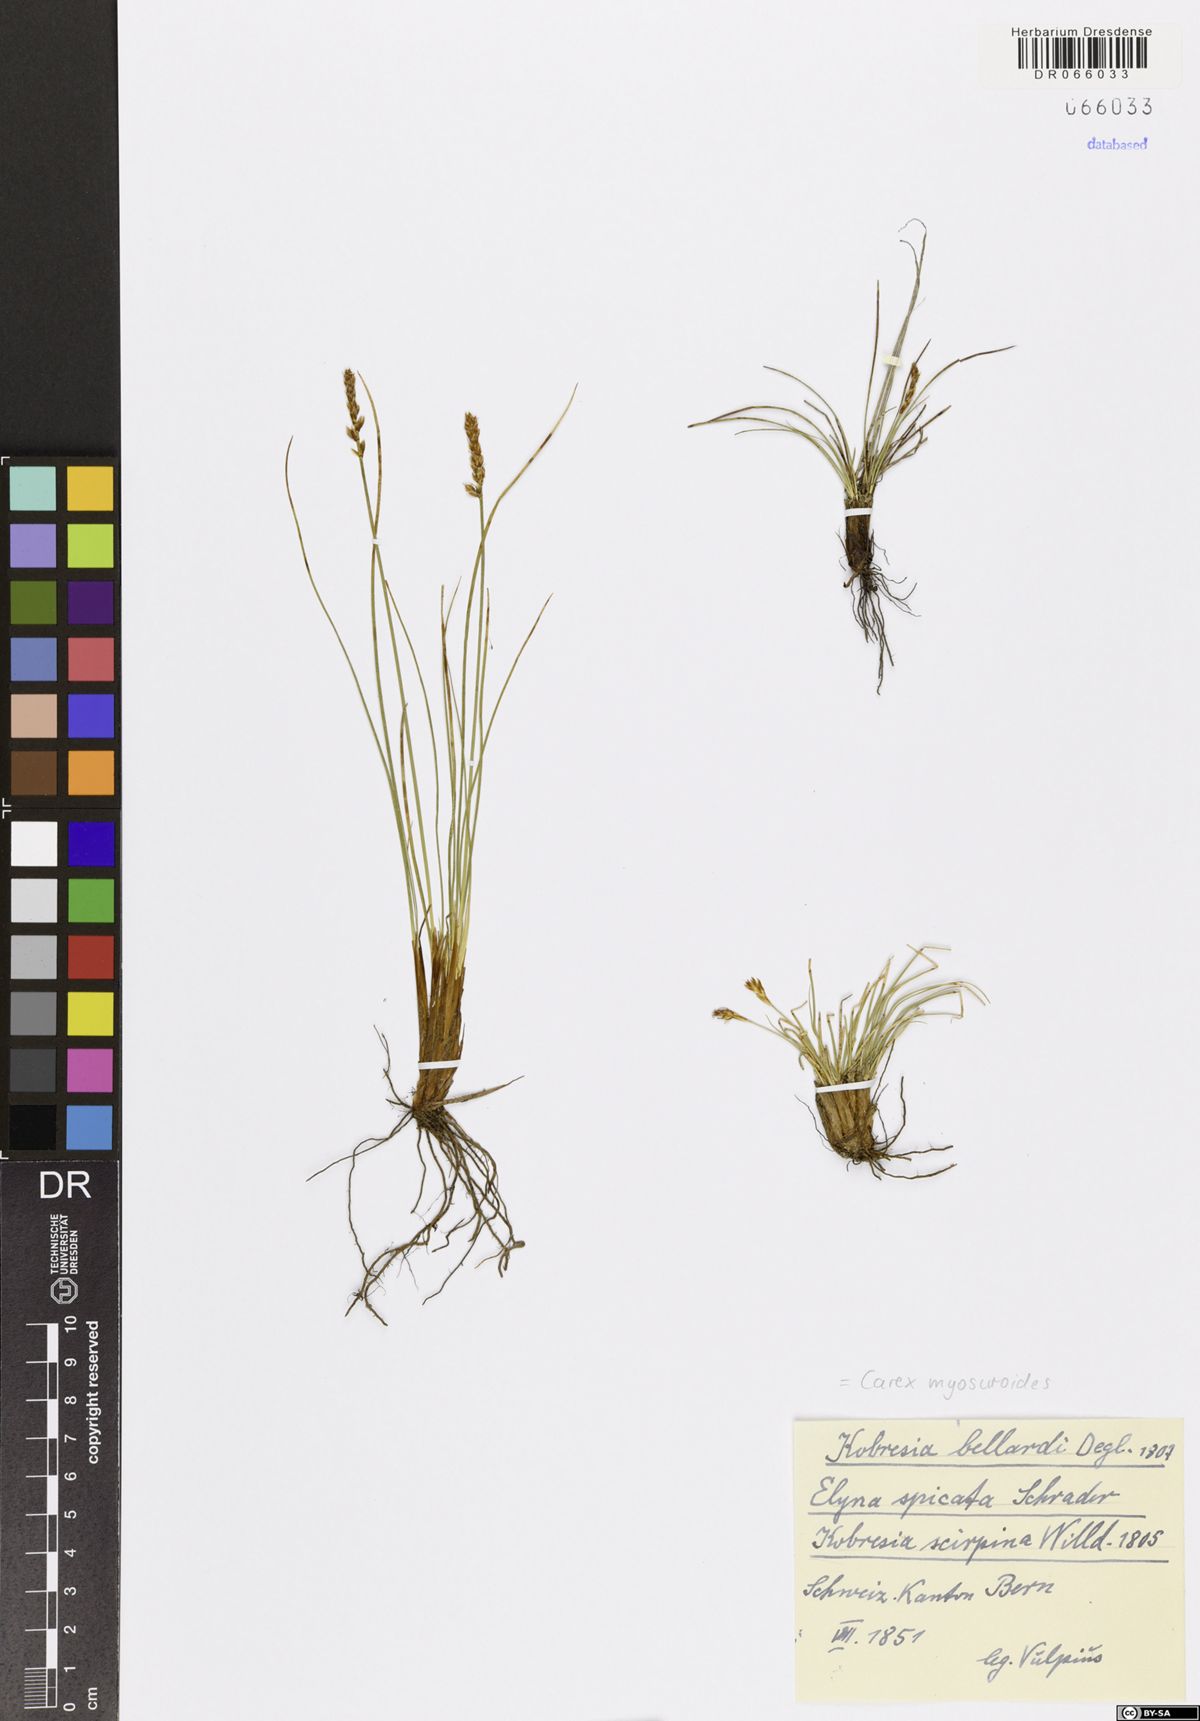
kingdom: Plantae
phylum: Tracheophyta
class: Liliopsida
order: Poales
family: Cyperaceae
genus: Carex
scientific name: Carex myosuroides
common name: Bellard's bog sedge
